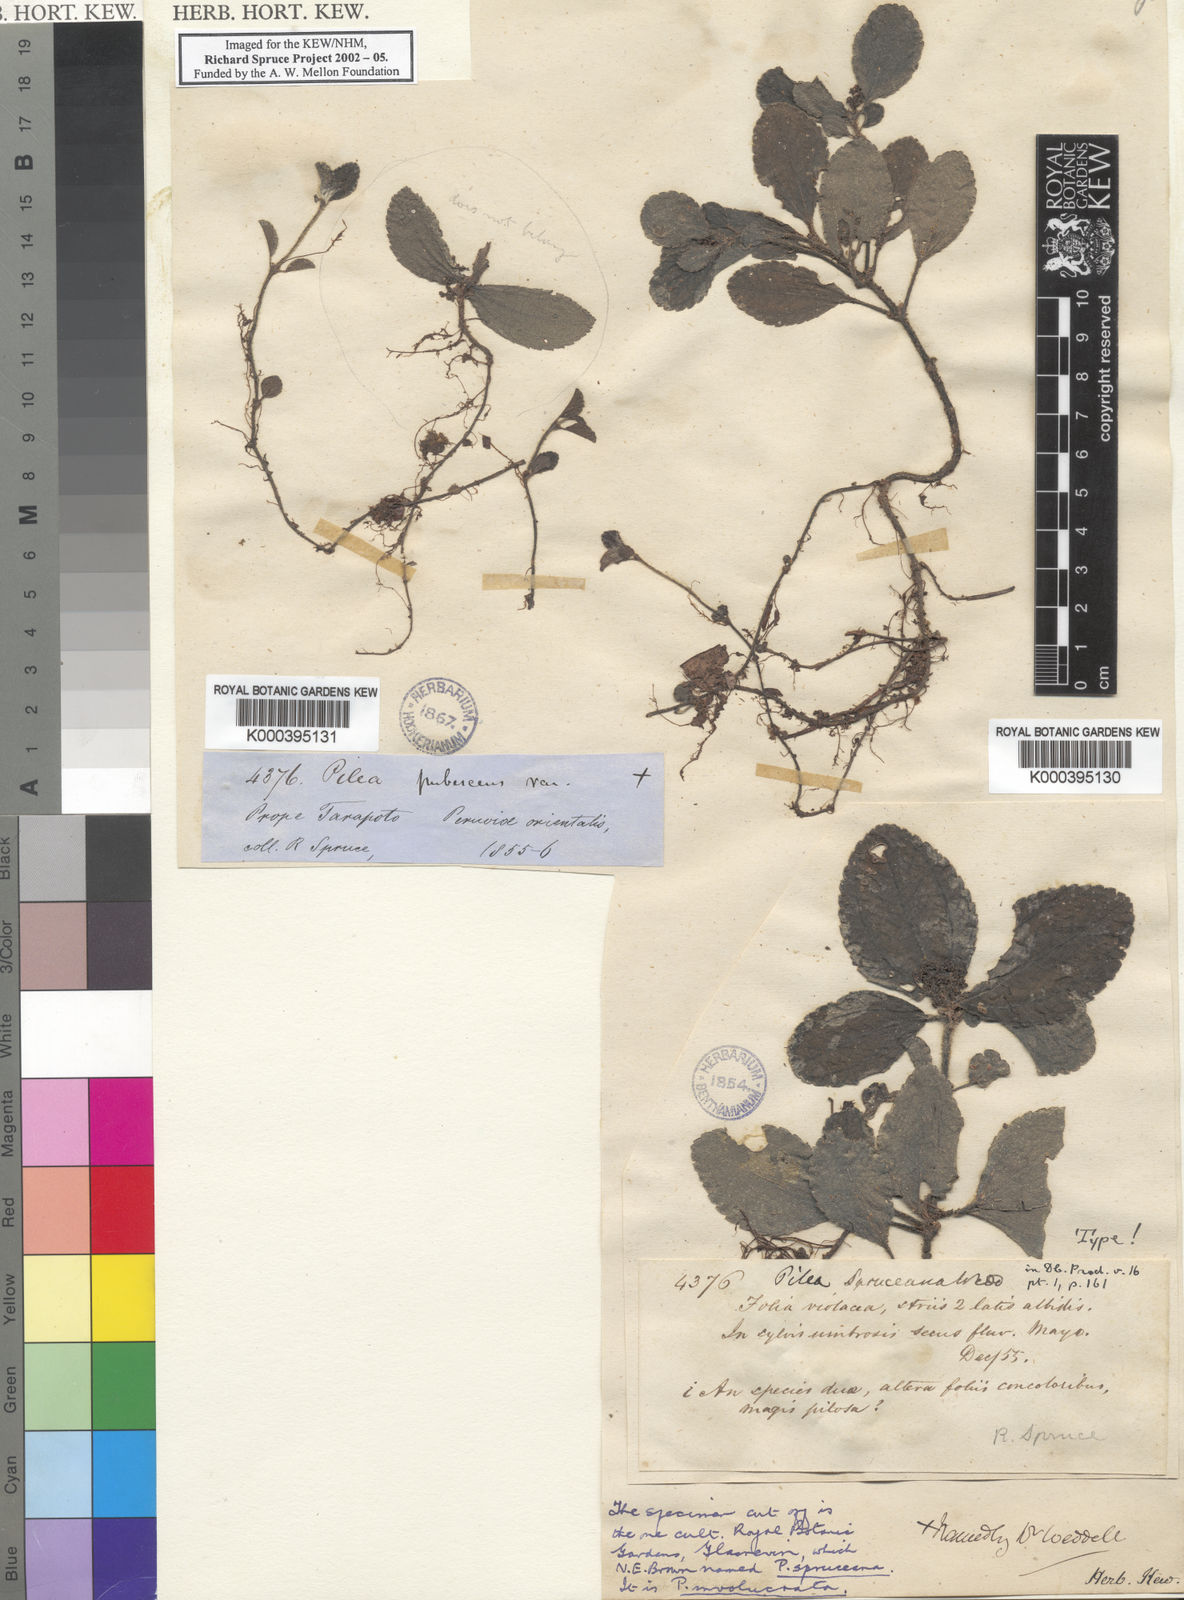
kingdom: Plantae
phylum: Tracheophyta
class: Magnoliopsida
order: Rosales
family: Urticaceae
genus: Pilea
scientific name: Pilea spruceana
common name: Clearweed
